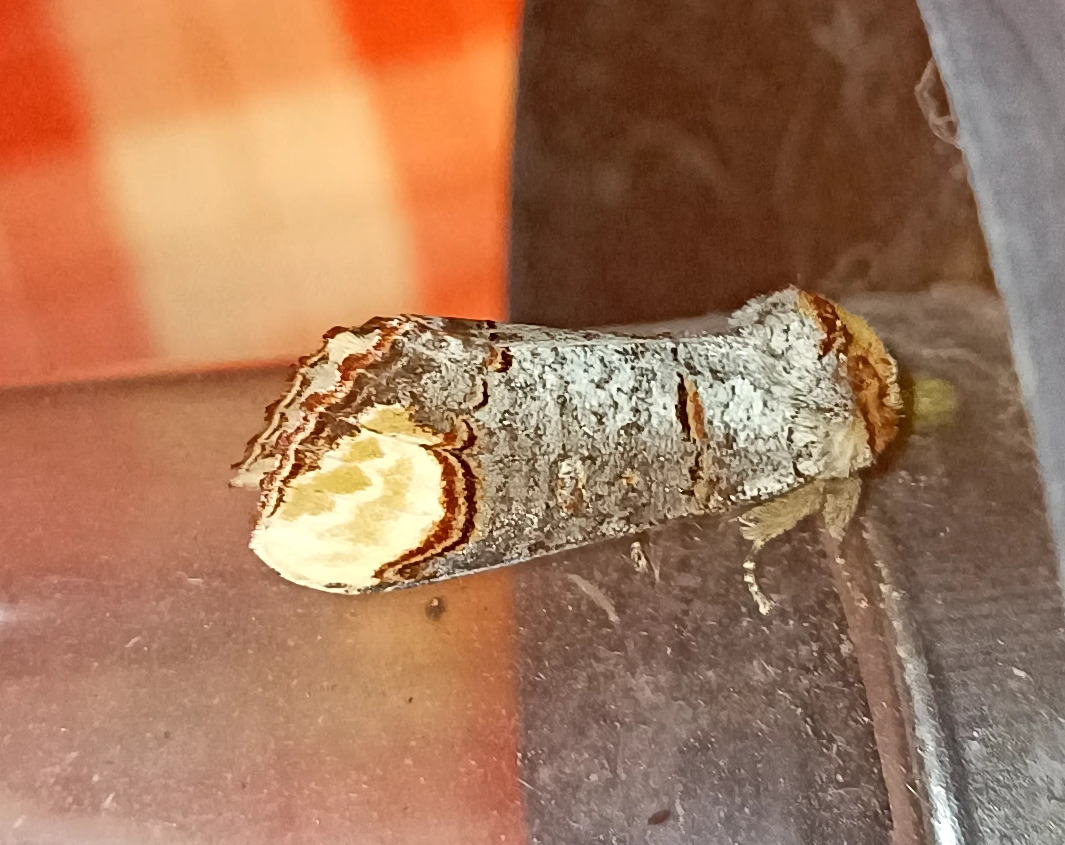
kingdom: Animalia
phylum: Arthropoda
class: Insecta
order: Lepidoptera
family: Notodontidae
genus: Phalera
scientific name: Phalera bucephala
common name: Måneplet
